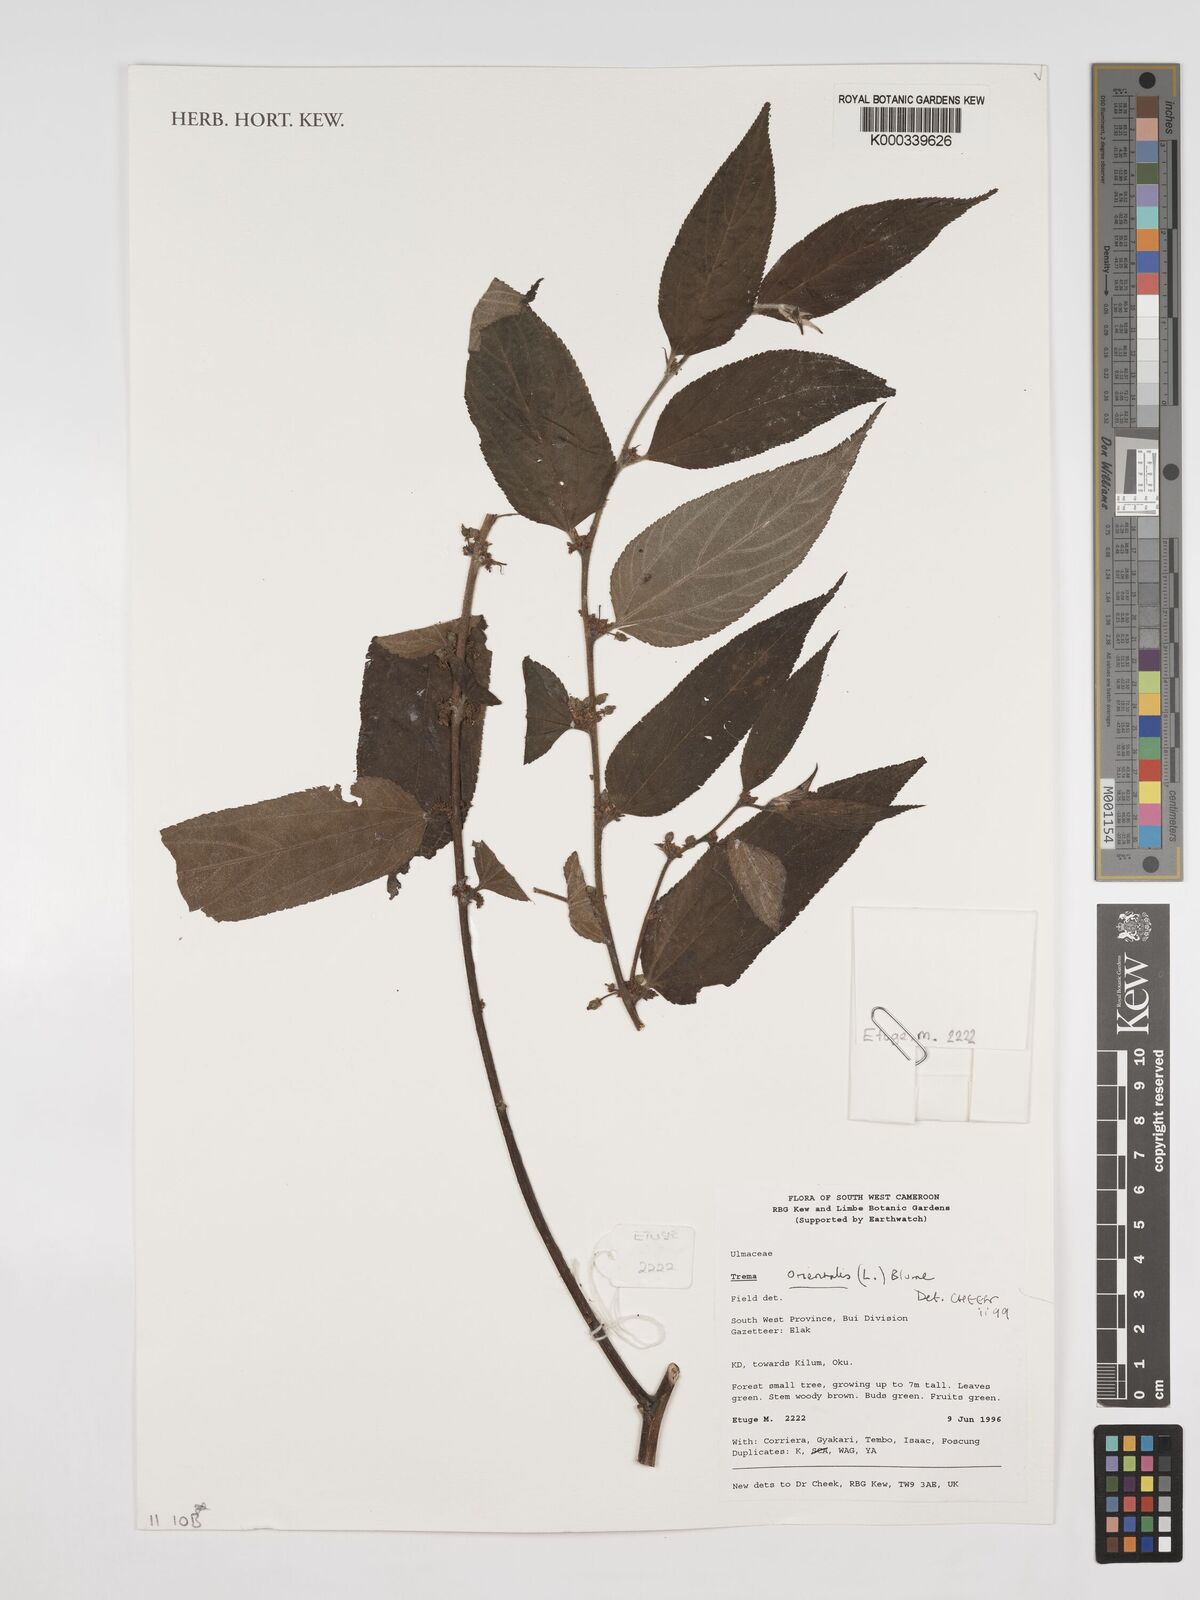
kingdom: Plantae
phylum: Tracheophyta
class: Magnoliopsida
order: Rosales
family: Cannabaceae
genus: Trema
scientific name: Trema
